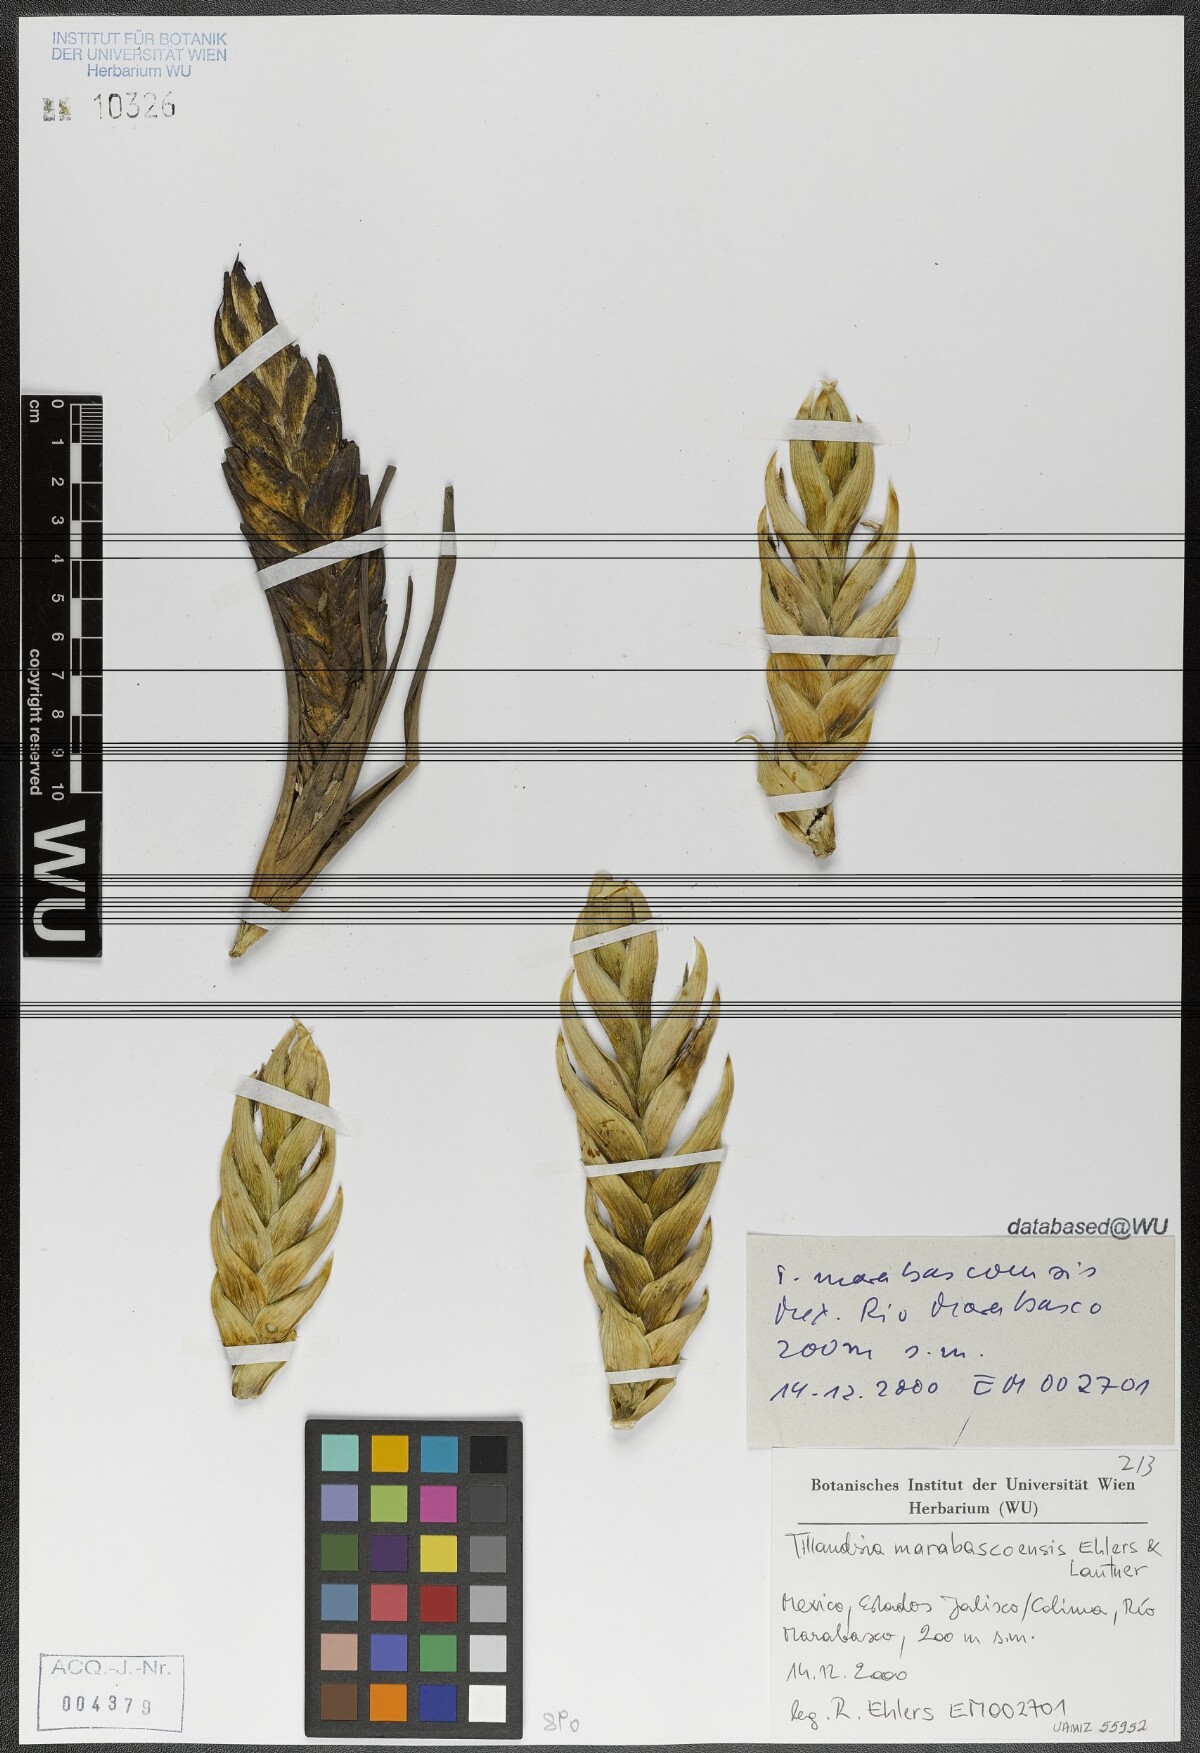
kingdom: Plantae
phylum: Tracheophyta
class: Liliopsida
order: Poales
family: Bromeliaceae
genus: Tillandsia
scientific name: Tillandsia marabascoensis
